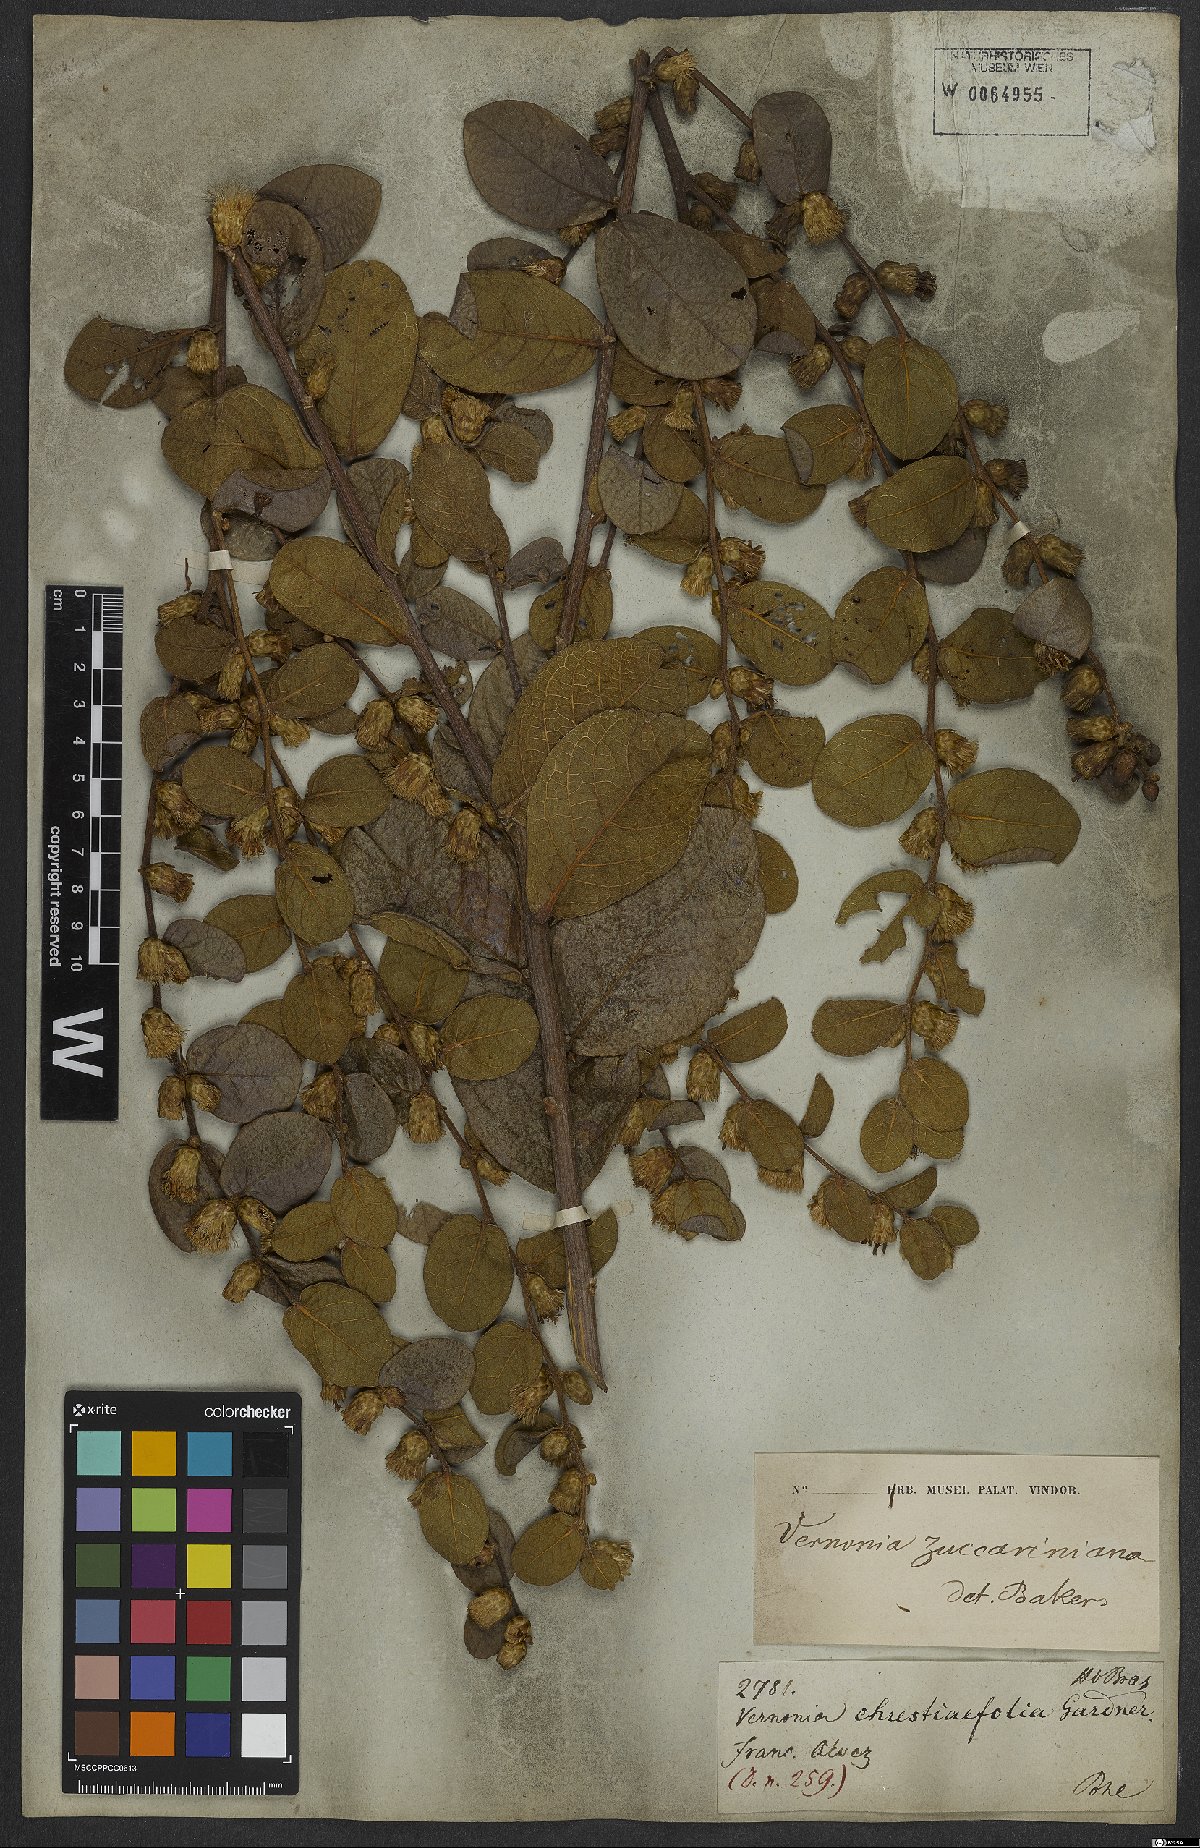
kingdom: Plantae
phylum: Tracheophyta
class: Magnoliopsida
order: Asterales
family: Asteraceae
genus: Lessingianthus
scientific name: Lessingianthus zuccarinianus
